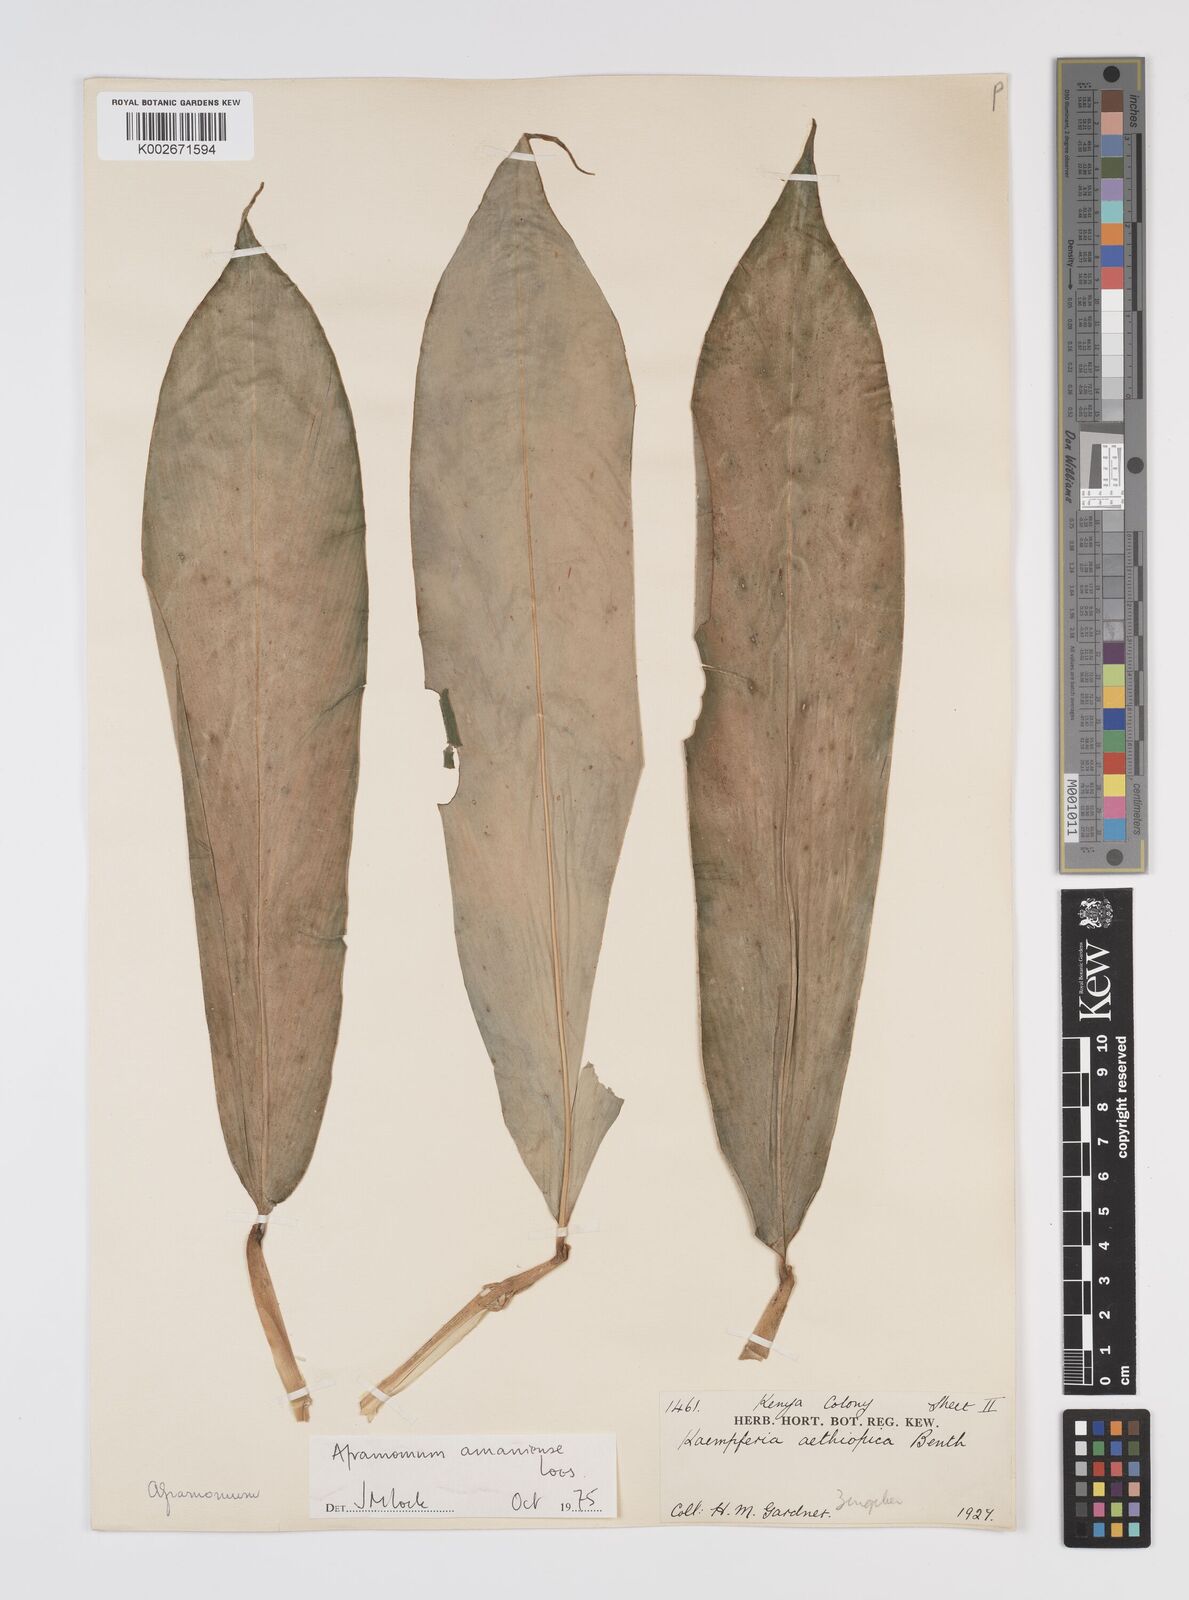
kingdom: Plantae
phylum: Tracheophyta
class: Liliopsida
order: Zingiberales
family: Zingiberaceae
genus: Aframomum
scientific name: Aframomum limbatum
